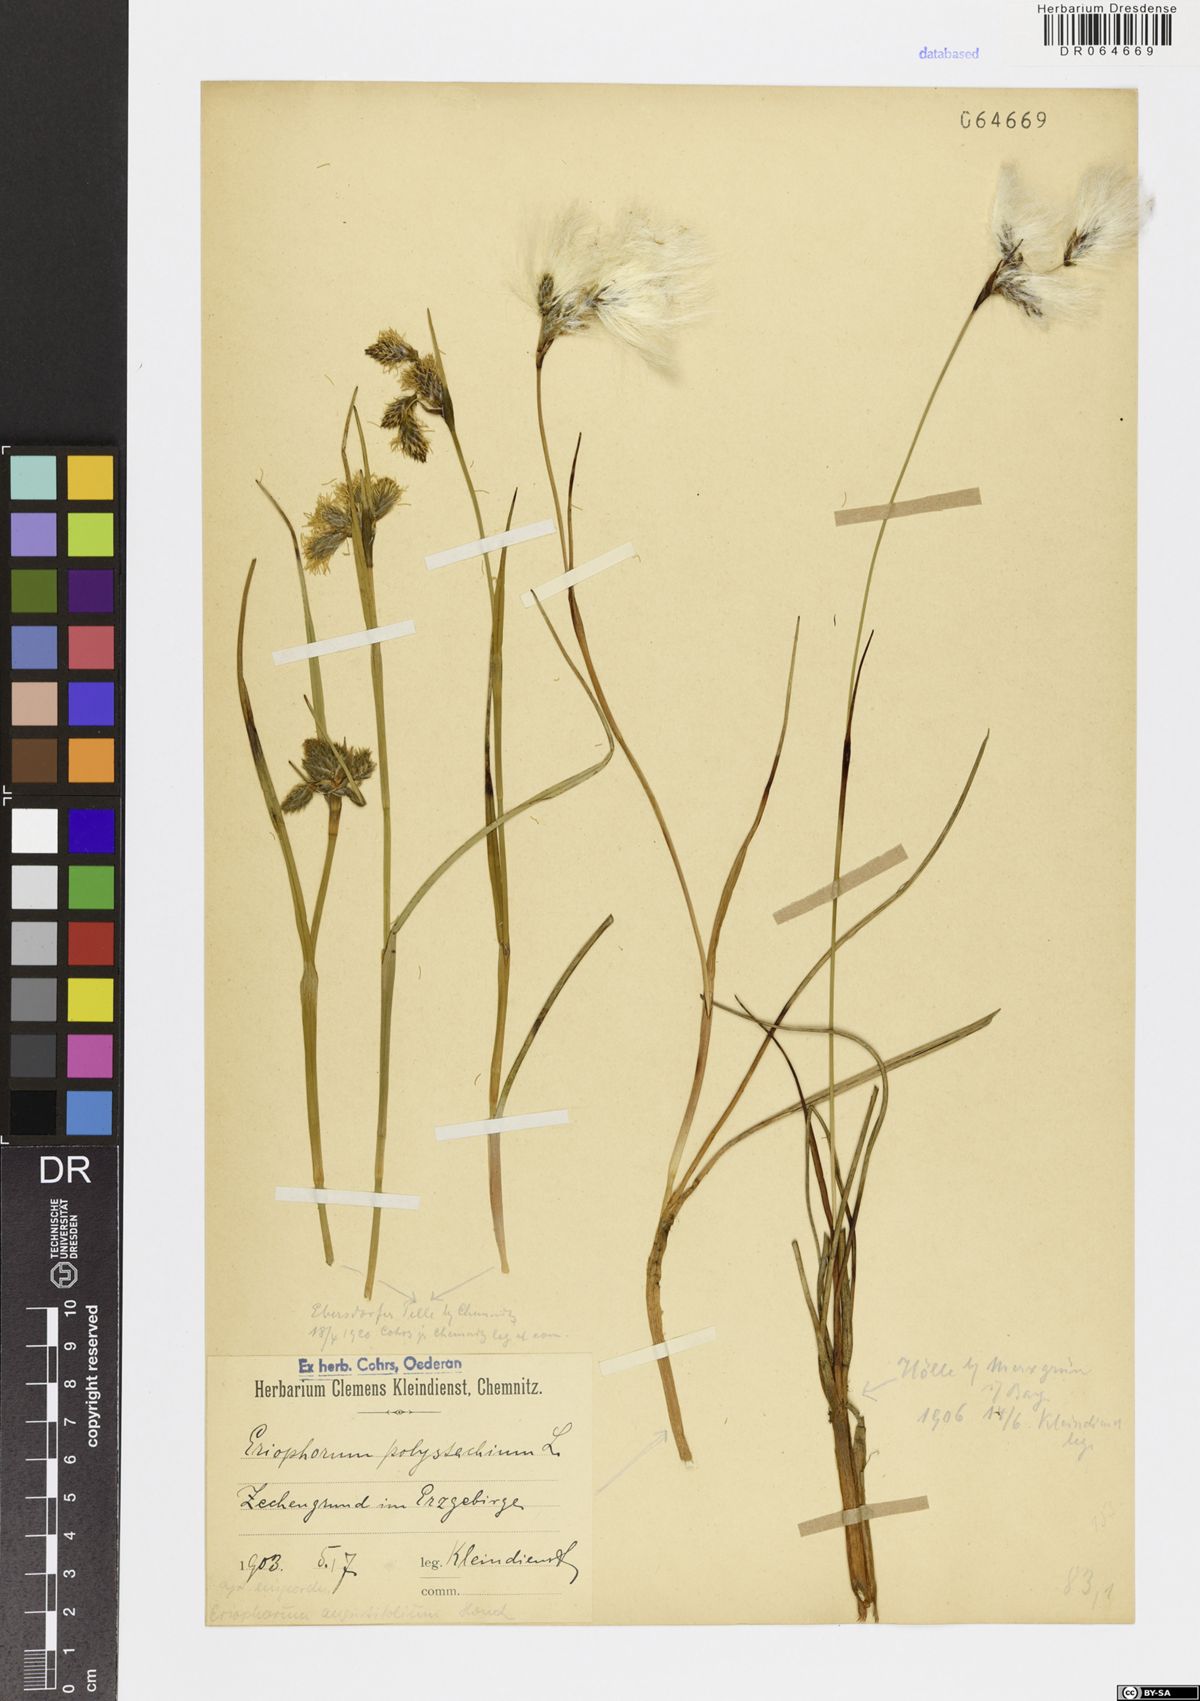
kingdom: Plantae
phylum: Tracheophyta
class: Liliopsida
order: Poales
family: Cyperaceae
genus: Eriophorum
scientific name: Eriophorum angustifolium
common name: Common cottongrass
